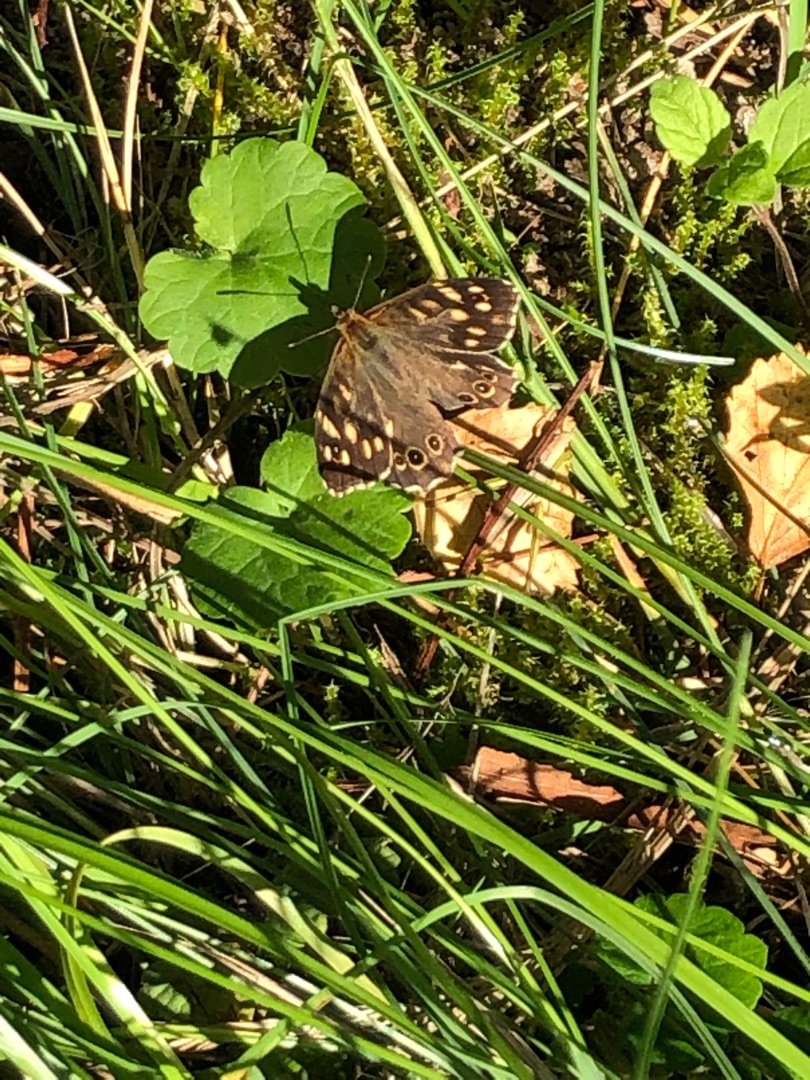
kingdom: Animalia
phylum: Arthropoda
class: Insecta
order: Lepidoptera
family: Nymphalidae
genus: Pararge
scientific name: Pararge aegeria
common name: Skovrandøje
